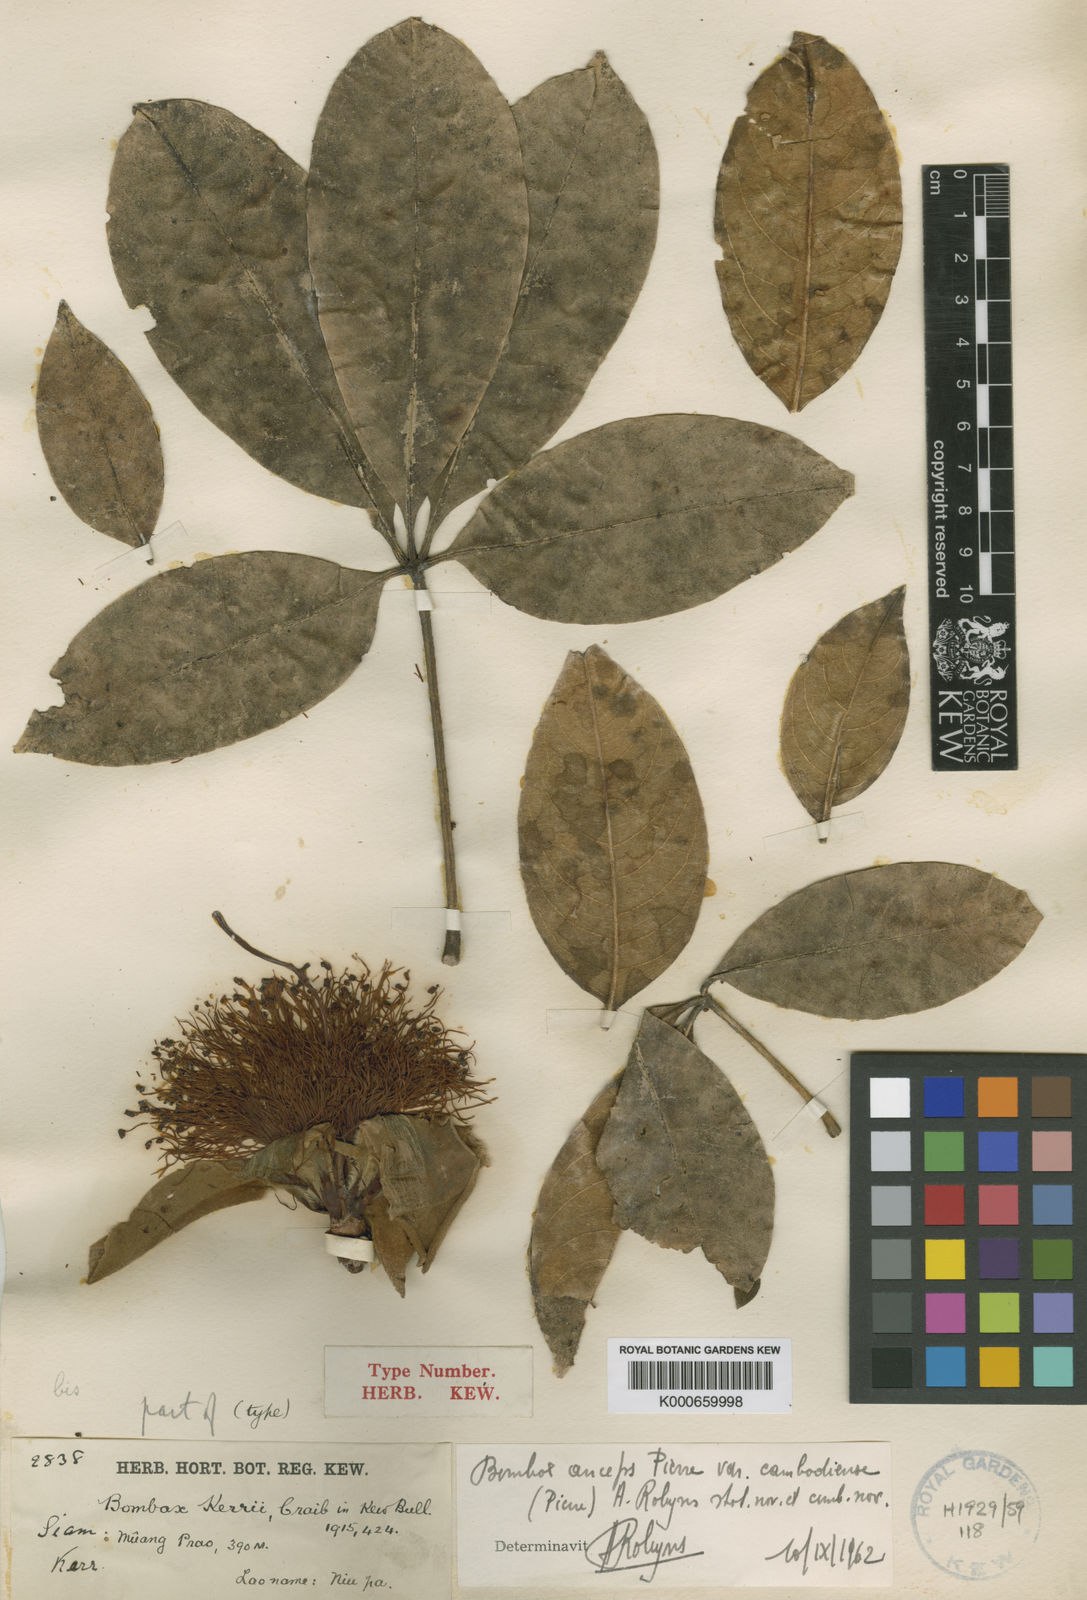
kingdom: Plantae
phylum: Tracheophyta
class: Magnoliopsida
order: Malvales
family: Malvaceae
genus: Bombax
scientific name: Bombax anceps
